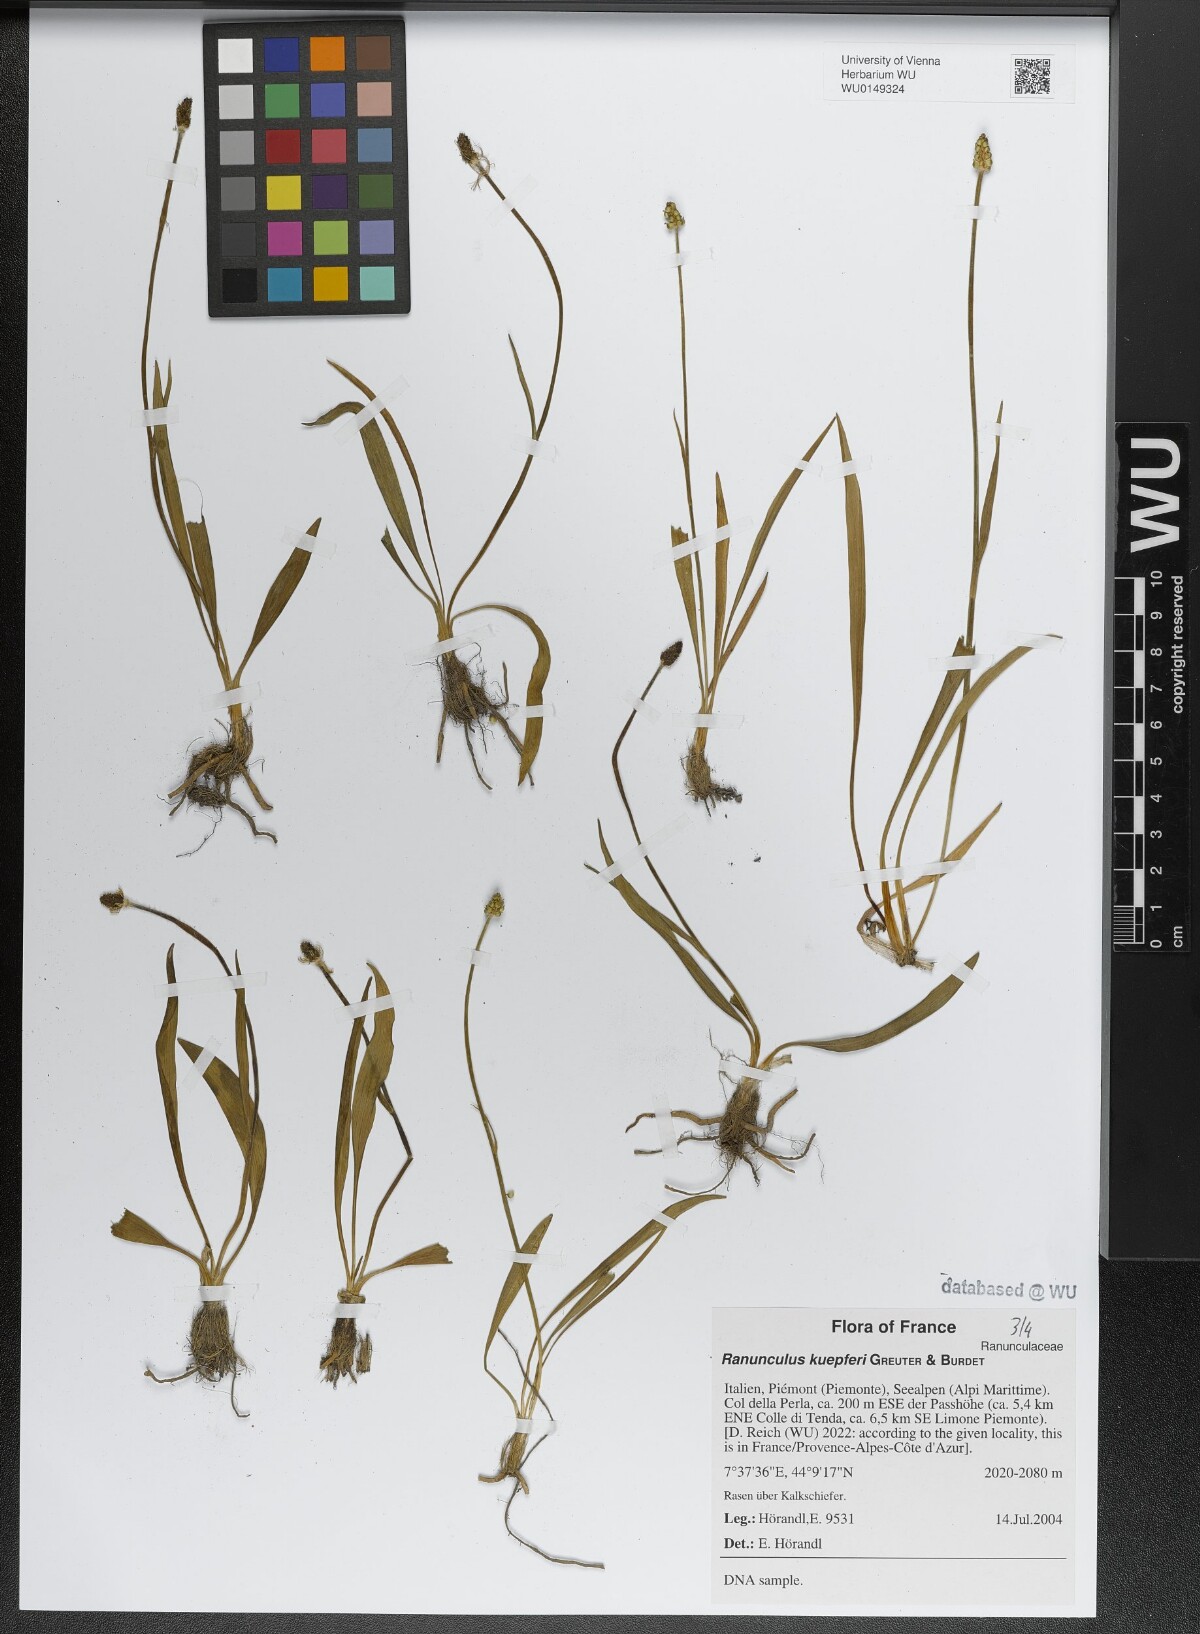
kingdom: Plantae
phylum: Tracheophyta
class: Magnoliopsida
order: Ranunculales
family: Ranunculaceae
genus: Ranunculus
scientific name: Ranunculus kuepferi
